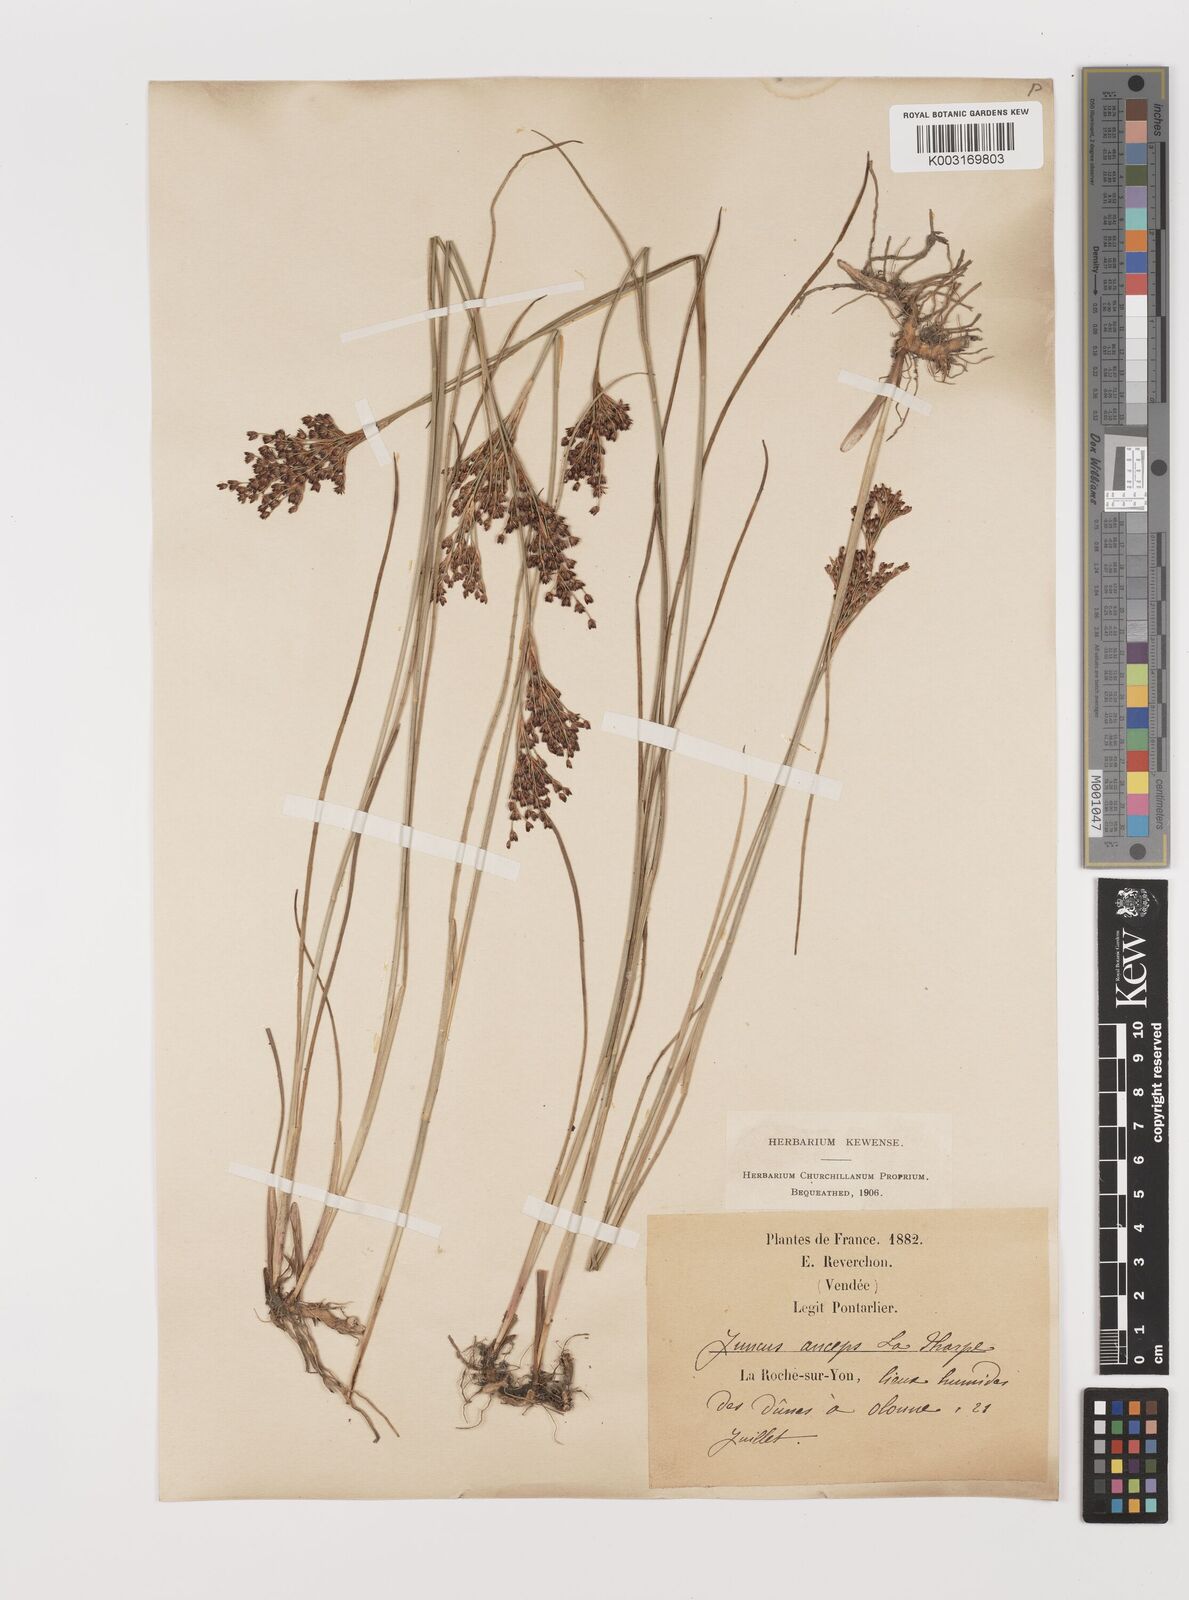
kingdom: Plantae
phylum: Tracheophyta
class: Liliopsida
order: Poales
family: Juncaceae
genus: Juncus
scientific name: Juncus anceps
